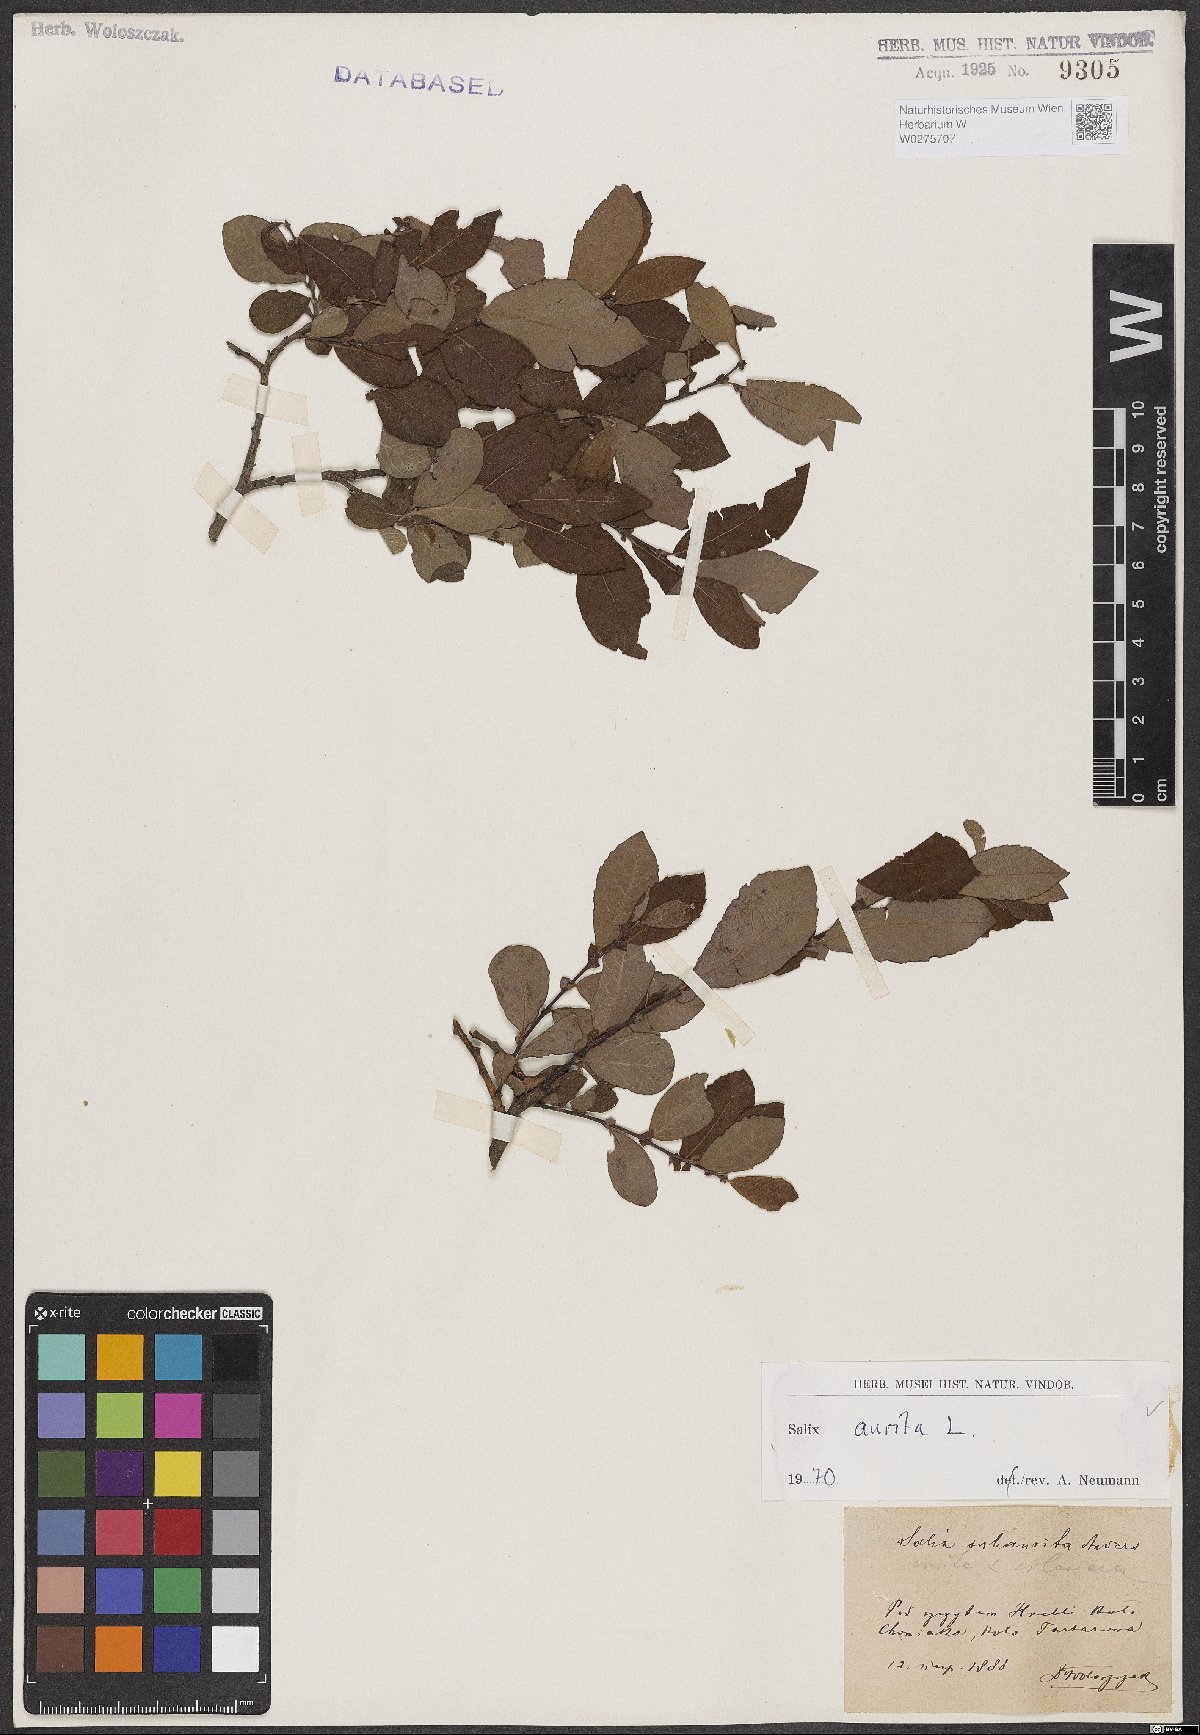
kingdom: Plantae
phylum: Tracheophyta
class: Magnoliopsida
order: Malpighiales
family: Salicaceae
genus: Salix
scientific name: Salix aurita
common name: Eared willow
